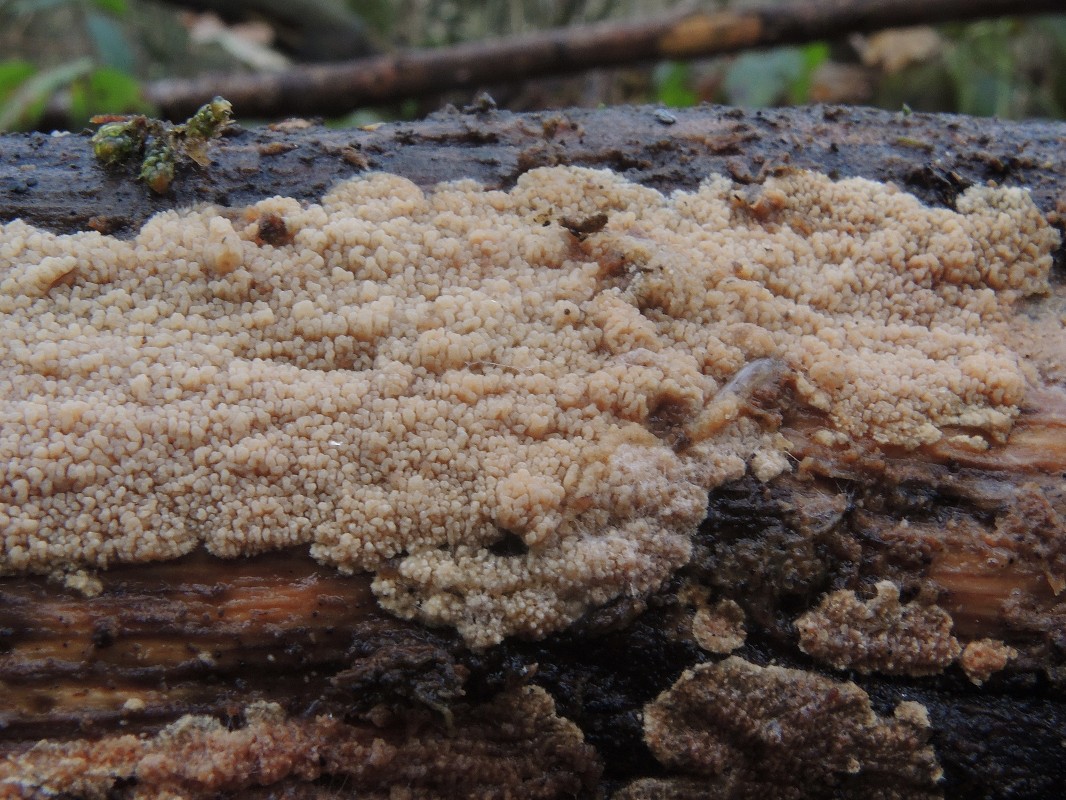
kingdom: Fungi
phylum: Basidiomycota
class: Agaricomycetes
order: Polyporales
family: Irpicaceae
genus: Crystallicutis
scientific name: Crystallicutis serpens
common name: gråviolet barkhinde
